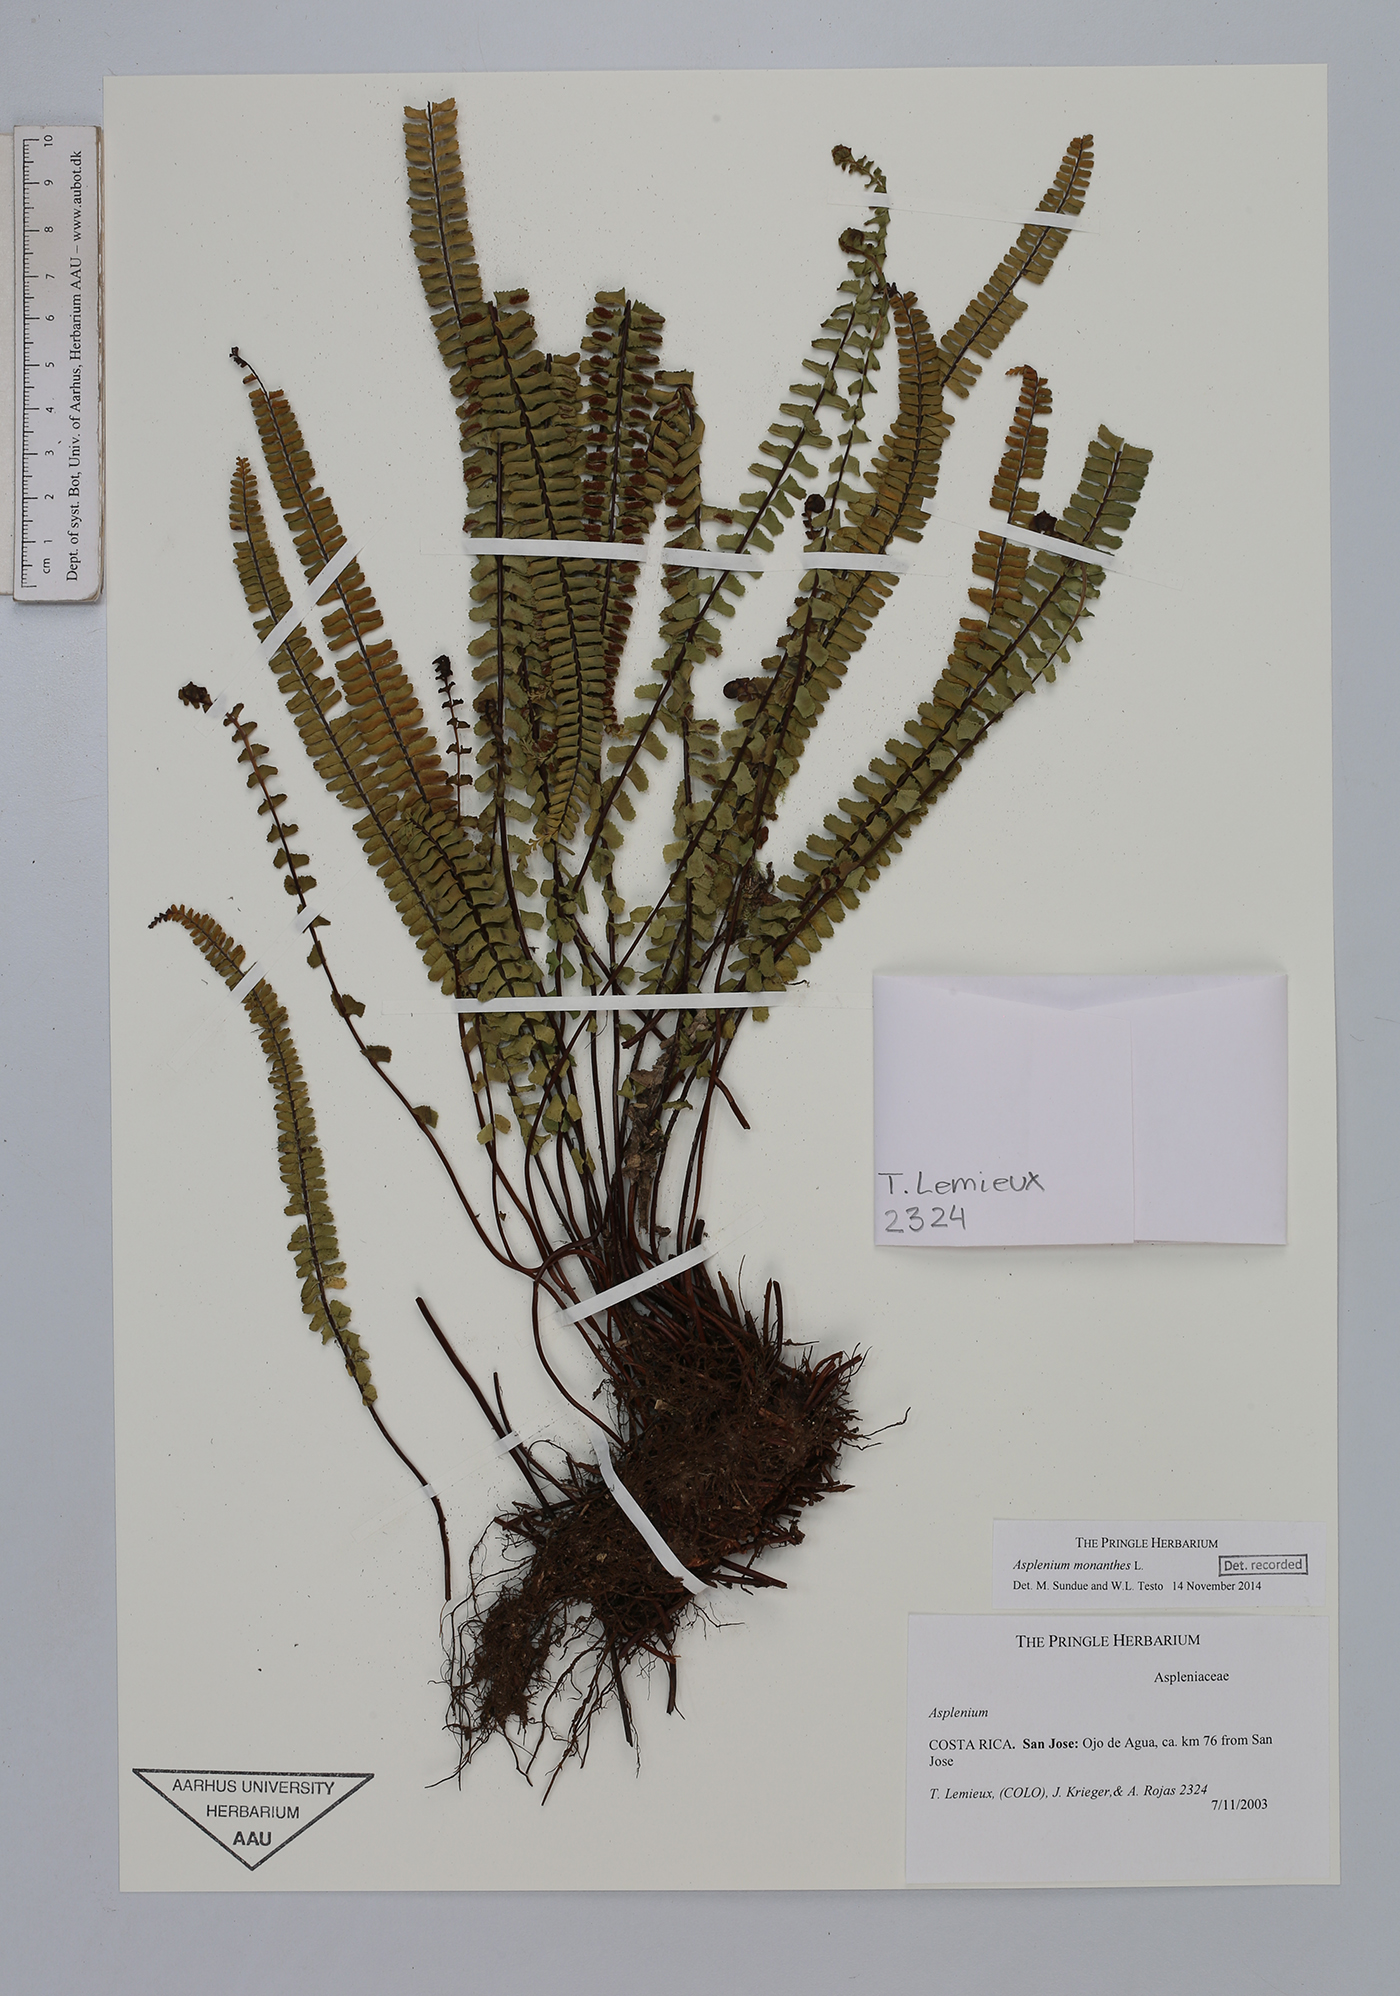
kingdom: Plantae
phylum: Tracheophyta
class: Polypodiopsida
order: Polypodiales
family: Aspleniaceae
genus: Asplenium
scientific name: Asplenium monanthes
